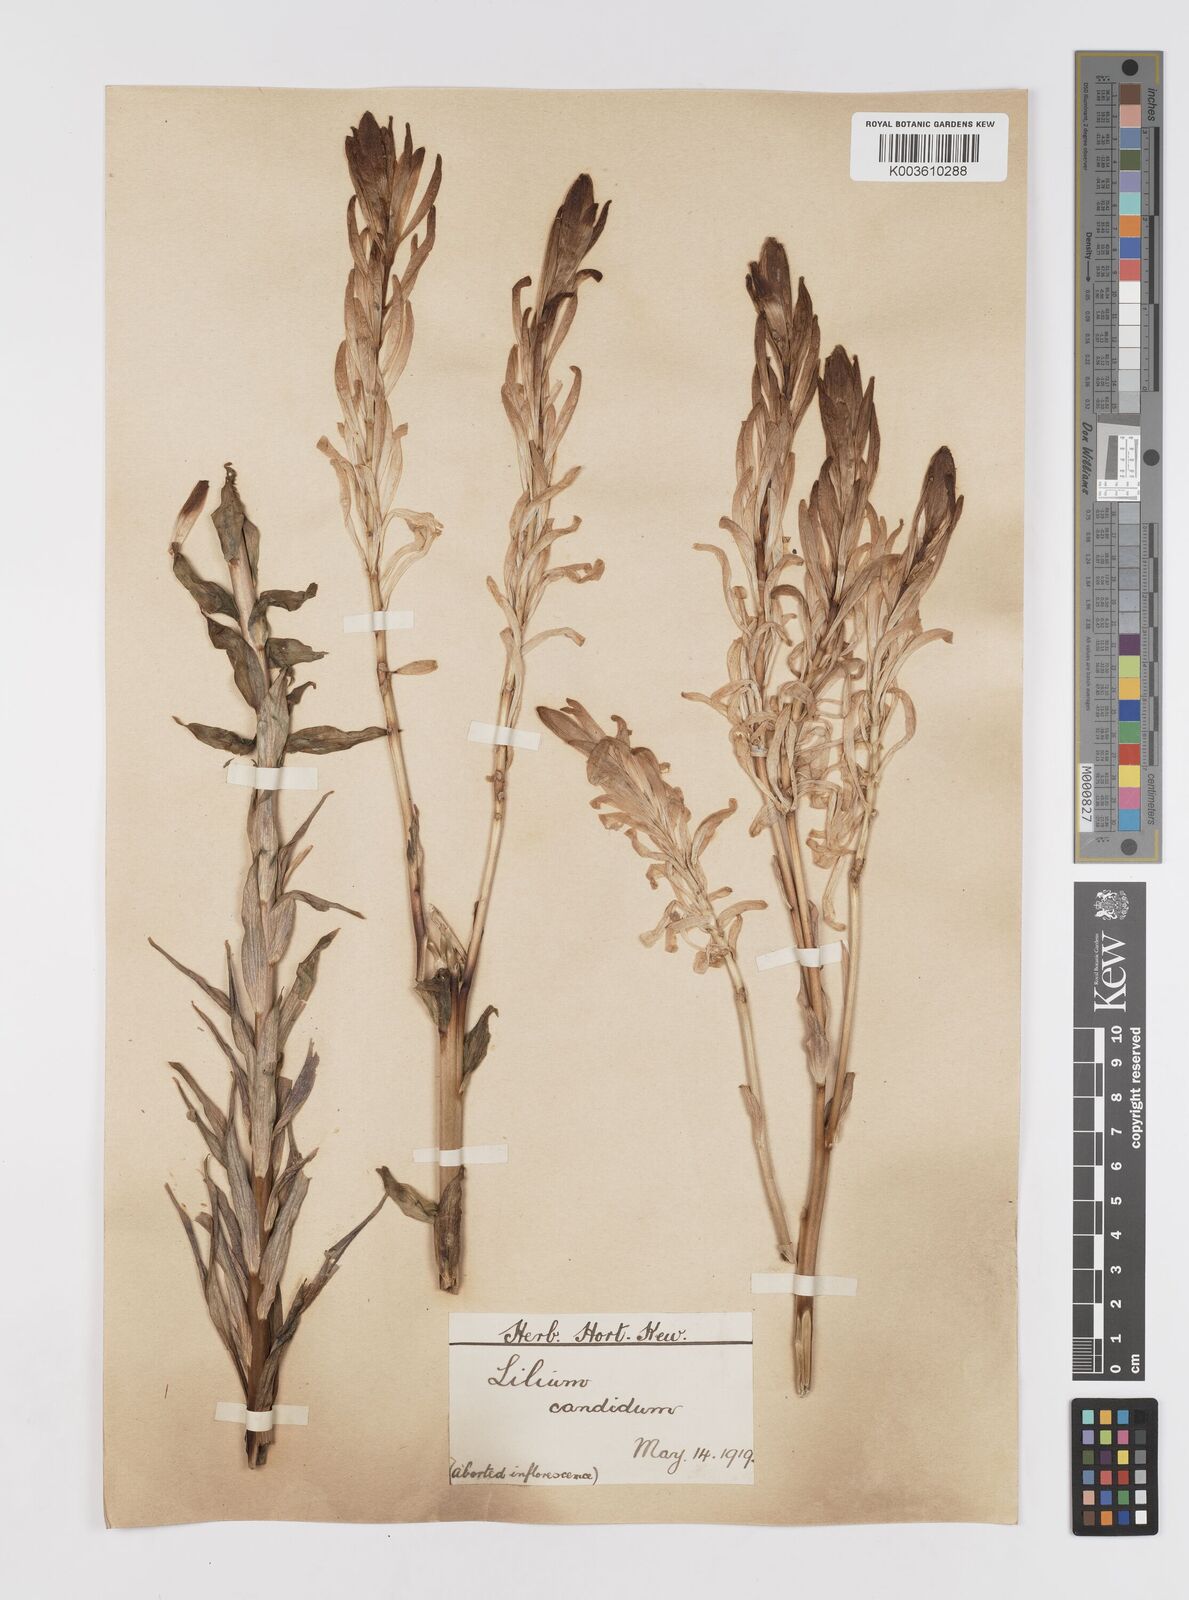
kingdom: Plantae
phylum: Tracheophyta
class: Liliopsida
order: Liliales
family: Liliaceae
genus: Lilium
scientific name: Lilium candidum
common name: Madonna lily
